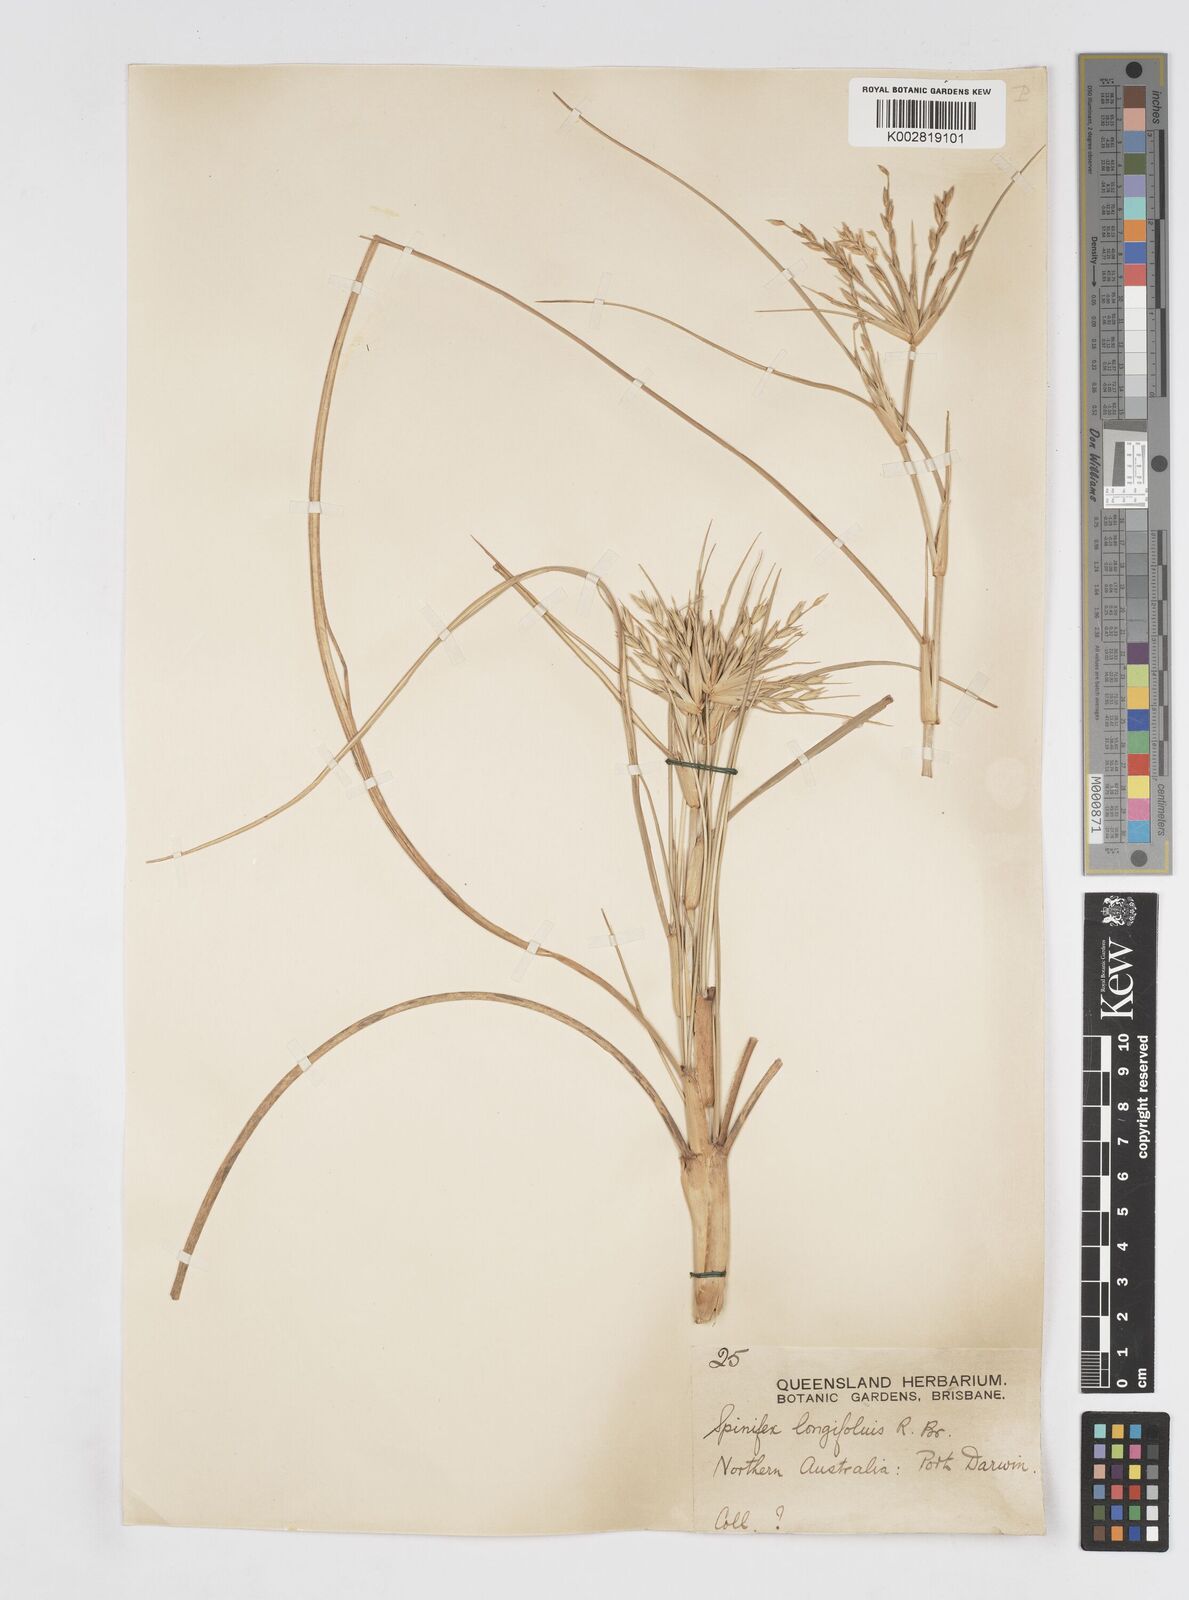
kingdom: Plantae
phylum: Tracheophyta
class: Liliopsida
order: Poales
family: Poaceae
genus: Spinifex
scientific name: Spinifex longifolius
